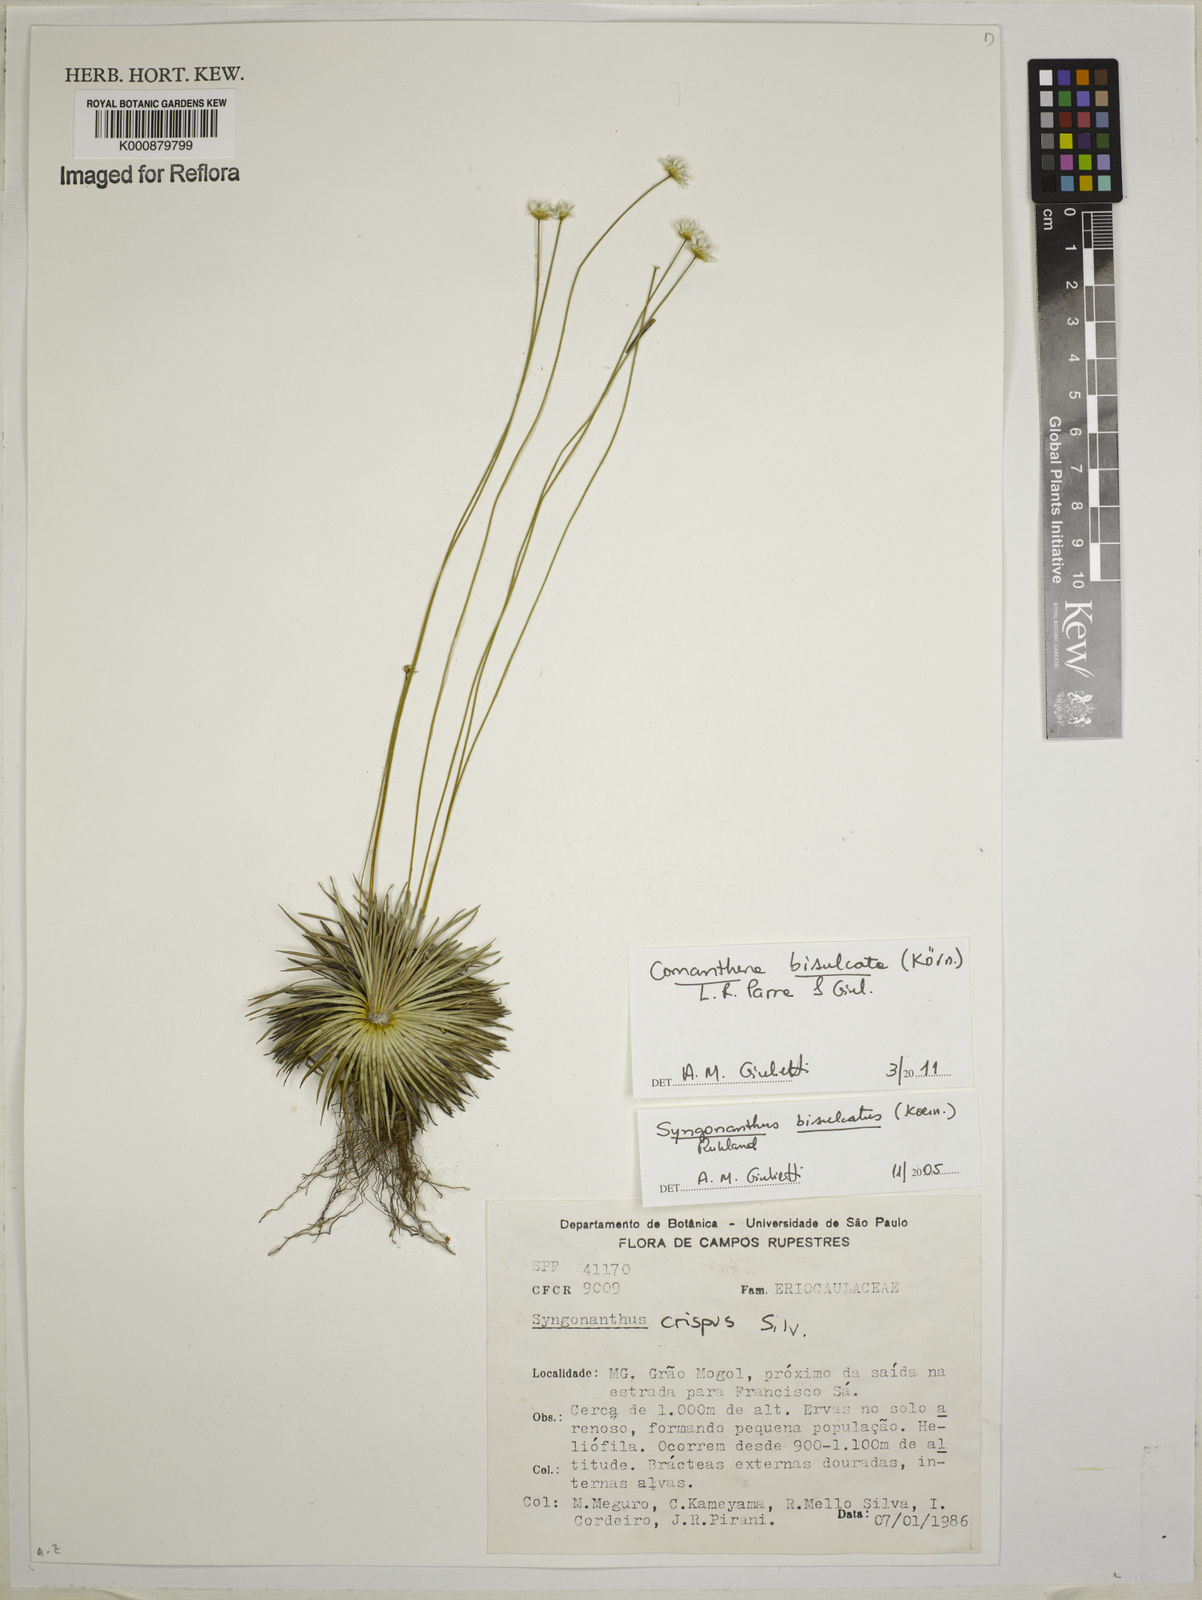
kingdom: Plantae
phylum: Tracheophyta
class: Liliopsida
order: Poales
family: Eriocaulaceae
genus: Comanthera
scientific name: Comanthera
